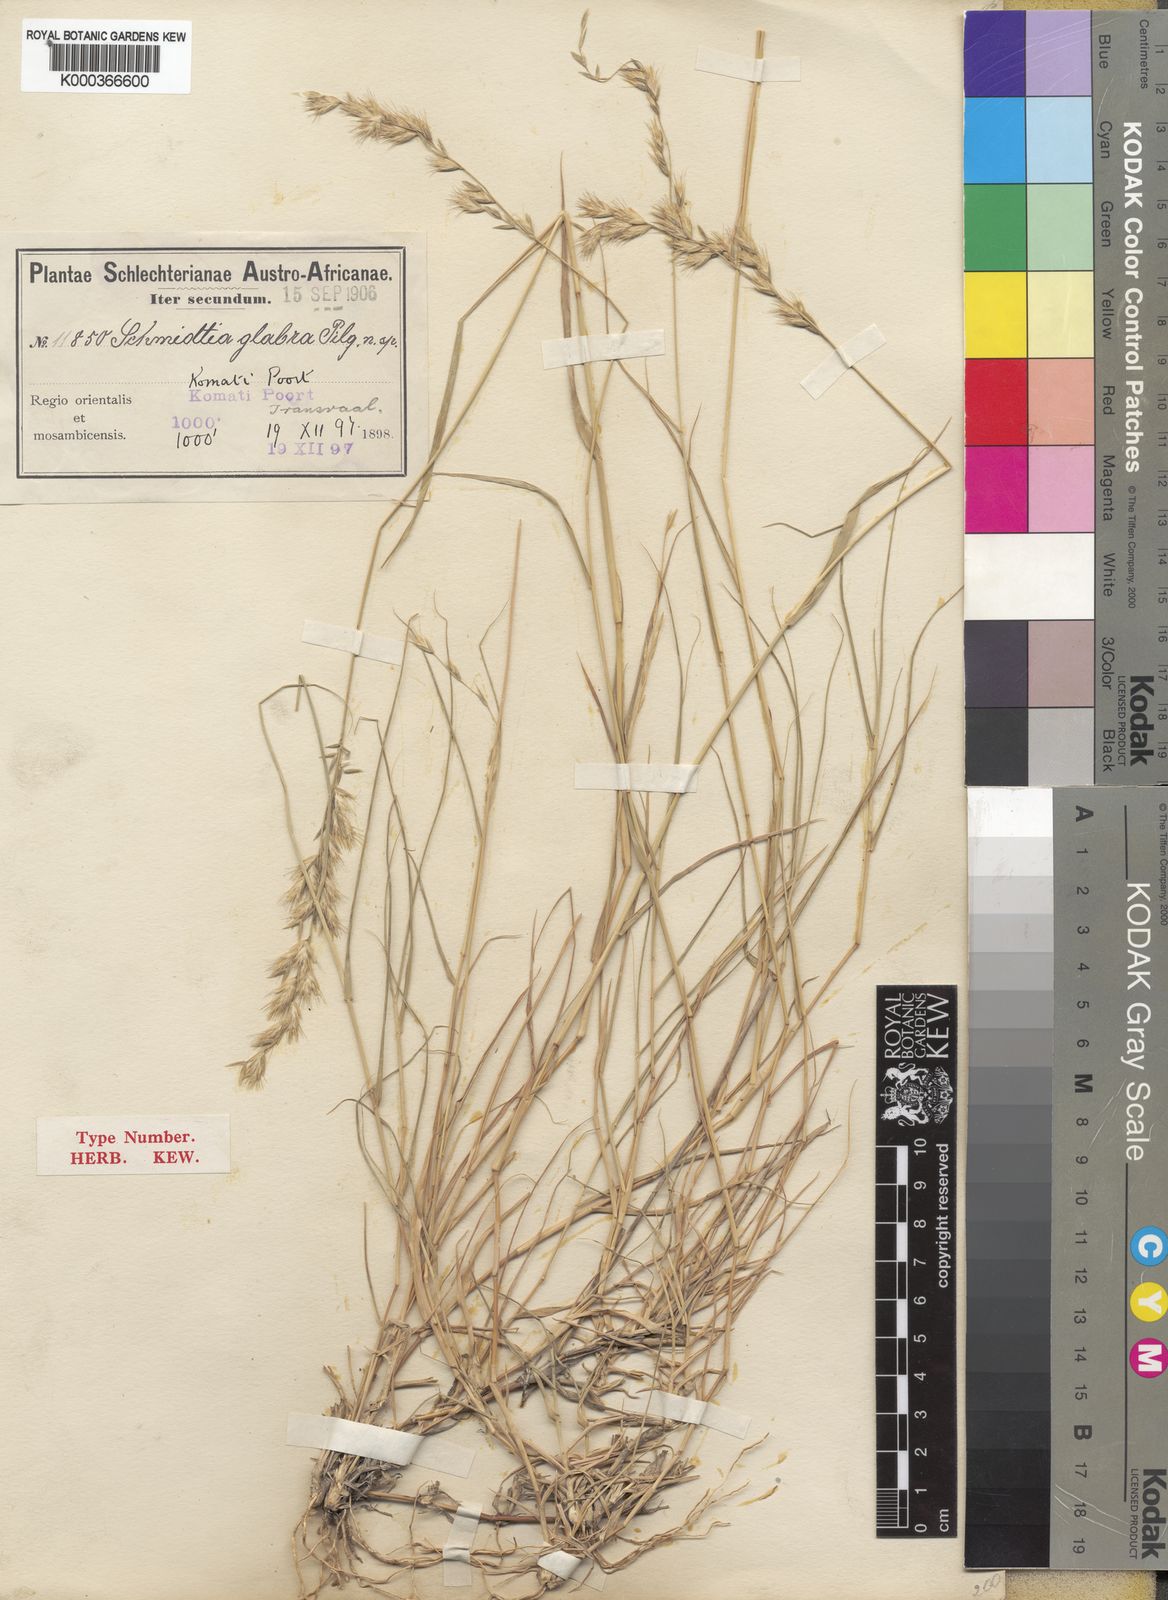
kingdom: Plantae
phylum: Tracheophyta
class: Liliopsida
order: Poales
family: Poaceae
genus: Schmidtia
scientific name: Schmidtia pappophoroides
